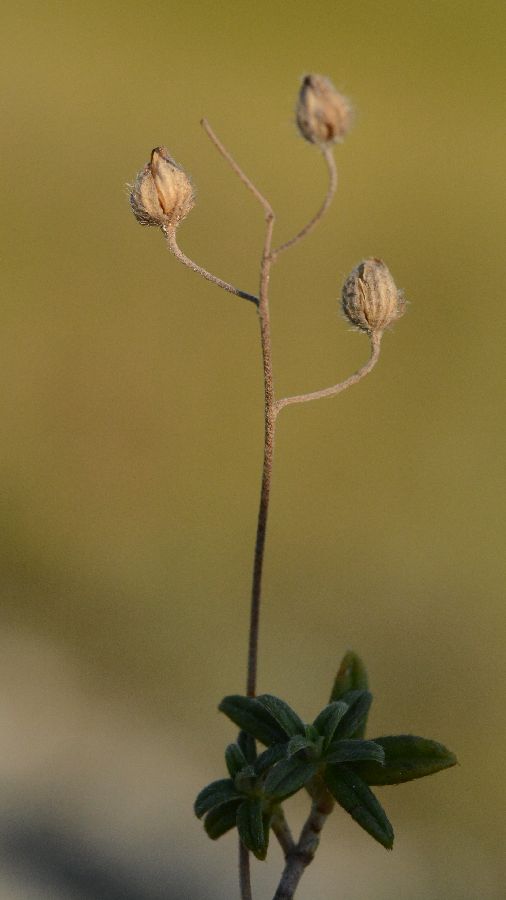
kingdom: Plantae
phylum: Tracheophyta
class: Magnoliopsida
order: Malvales
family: Cistaceae
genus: Helianthemum
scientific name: Helianthemum canum
